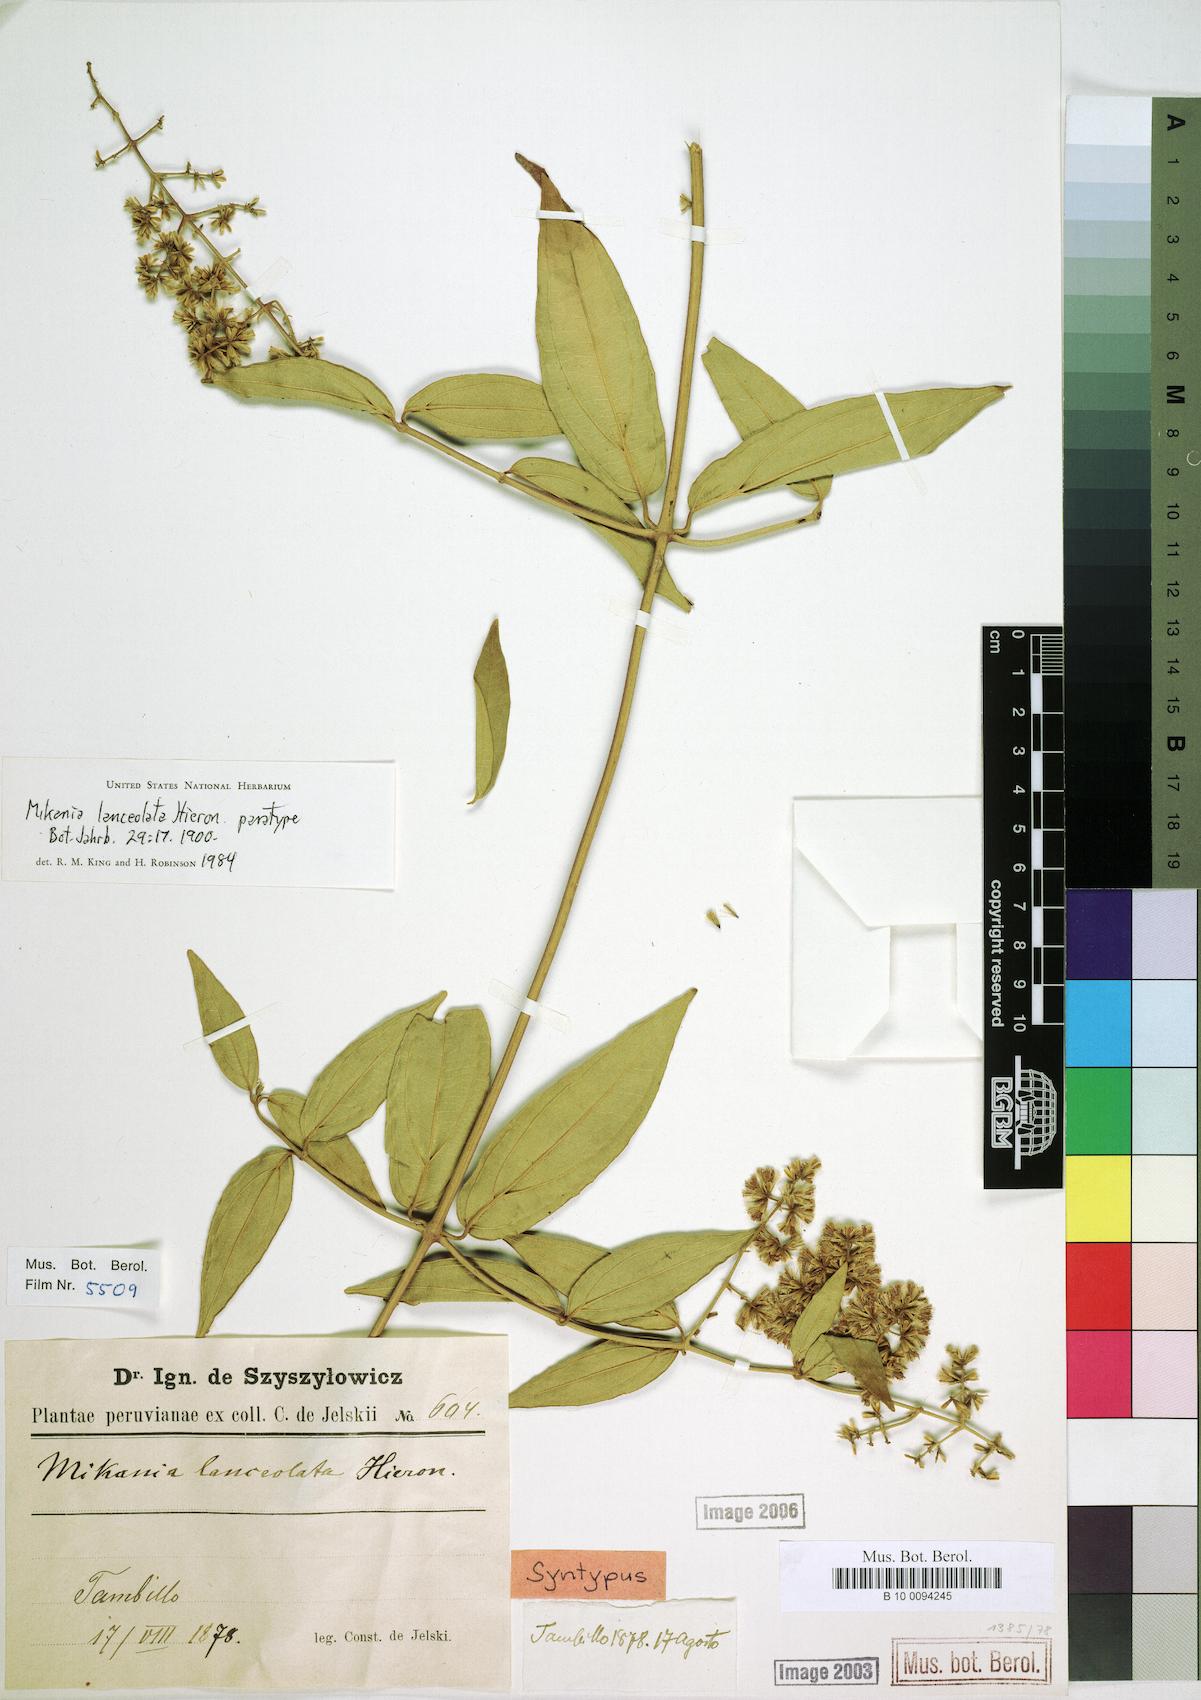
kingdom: Plantae
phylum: Tracheophyta
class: Magnoliopsida
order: Asterales
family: Asteraceae
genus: Mikania
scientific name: Mikania lanceolata
